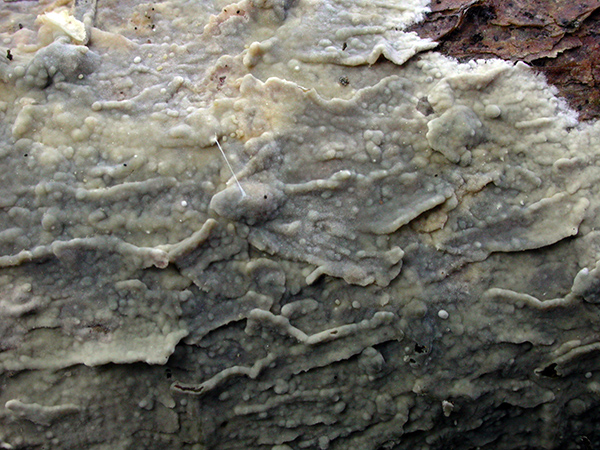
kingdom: Fungi
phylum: Basidiomycota
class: Agaricomycetes
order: Polyporales
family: Phanerochaetaceae
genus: Phanerochaete
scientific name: Phanerochaete sordida
